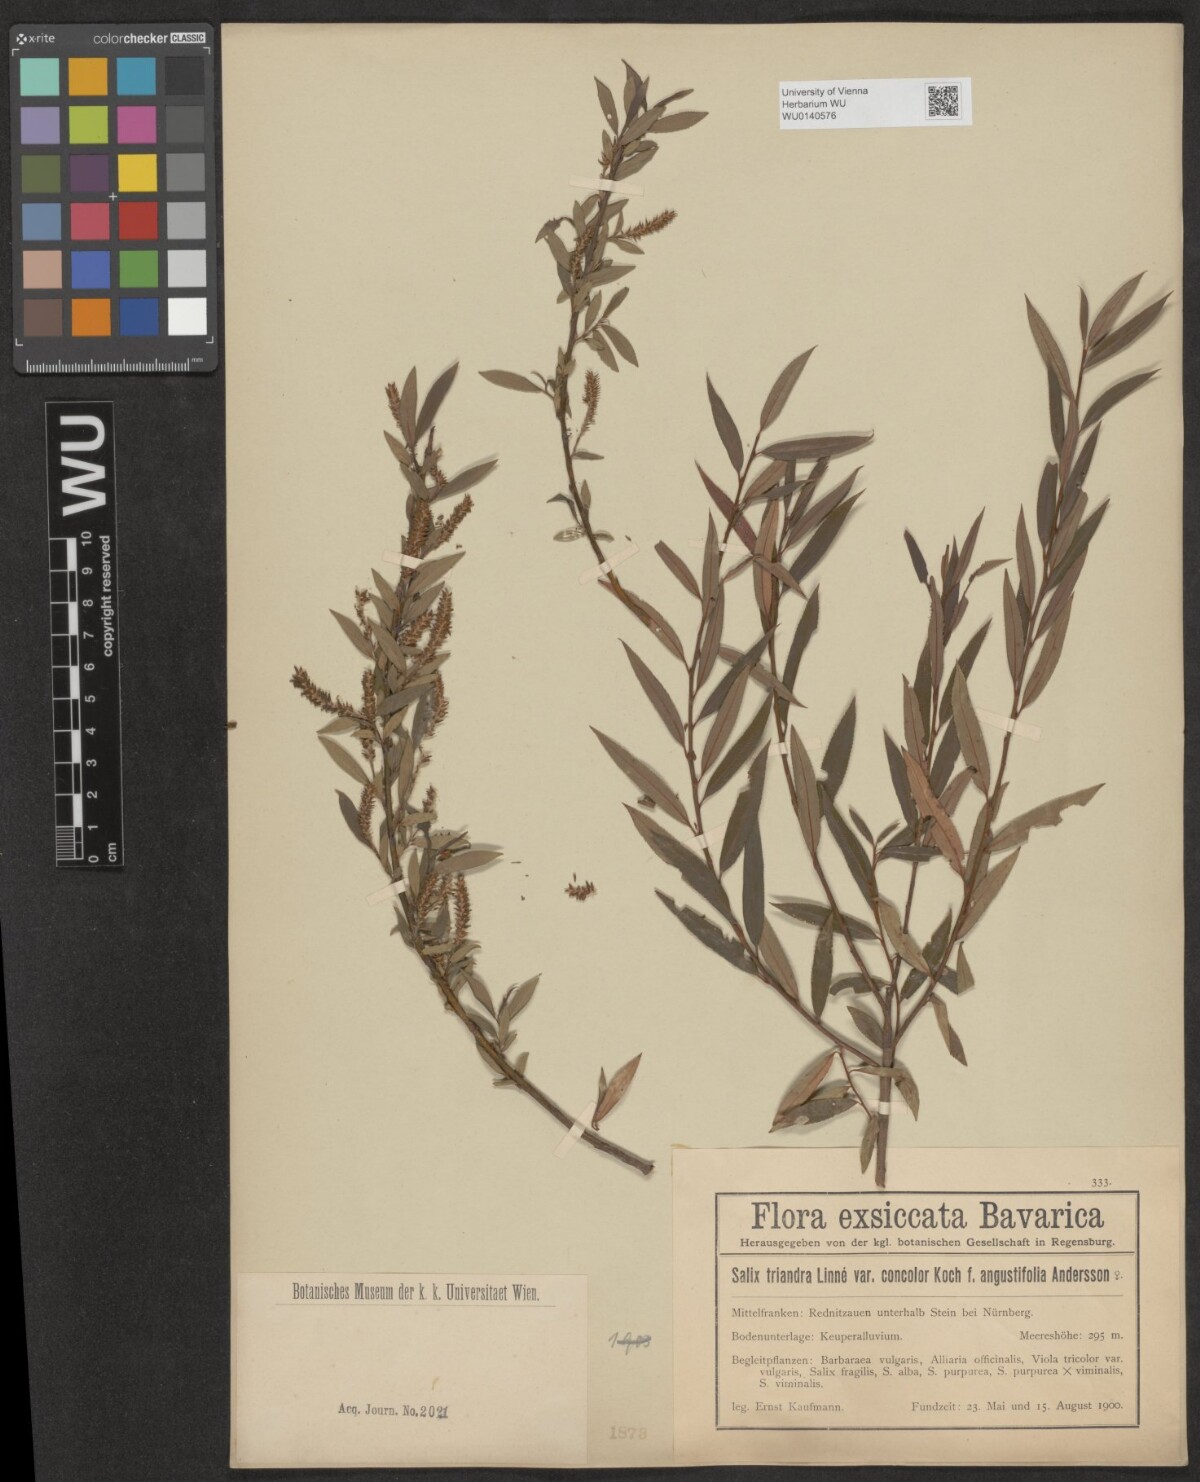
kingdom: Plantae
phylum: Tracheophyta
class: Magnoliopsida
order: Malpighiales
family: Salicaceae
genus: Salix
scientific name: Salix triandra
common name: Almond willow
